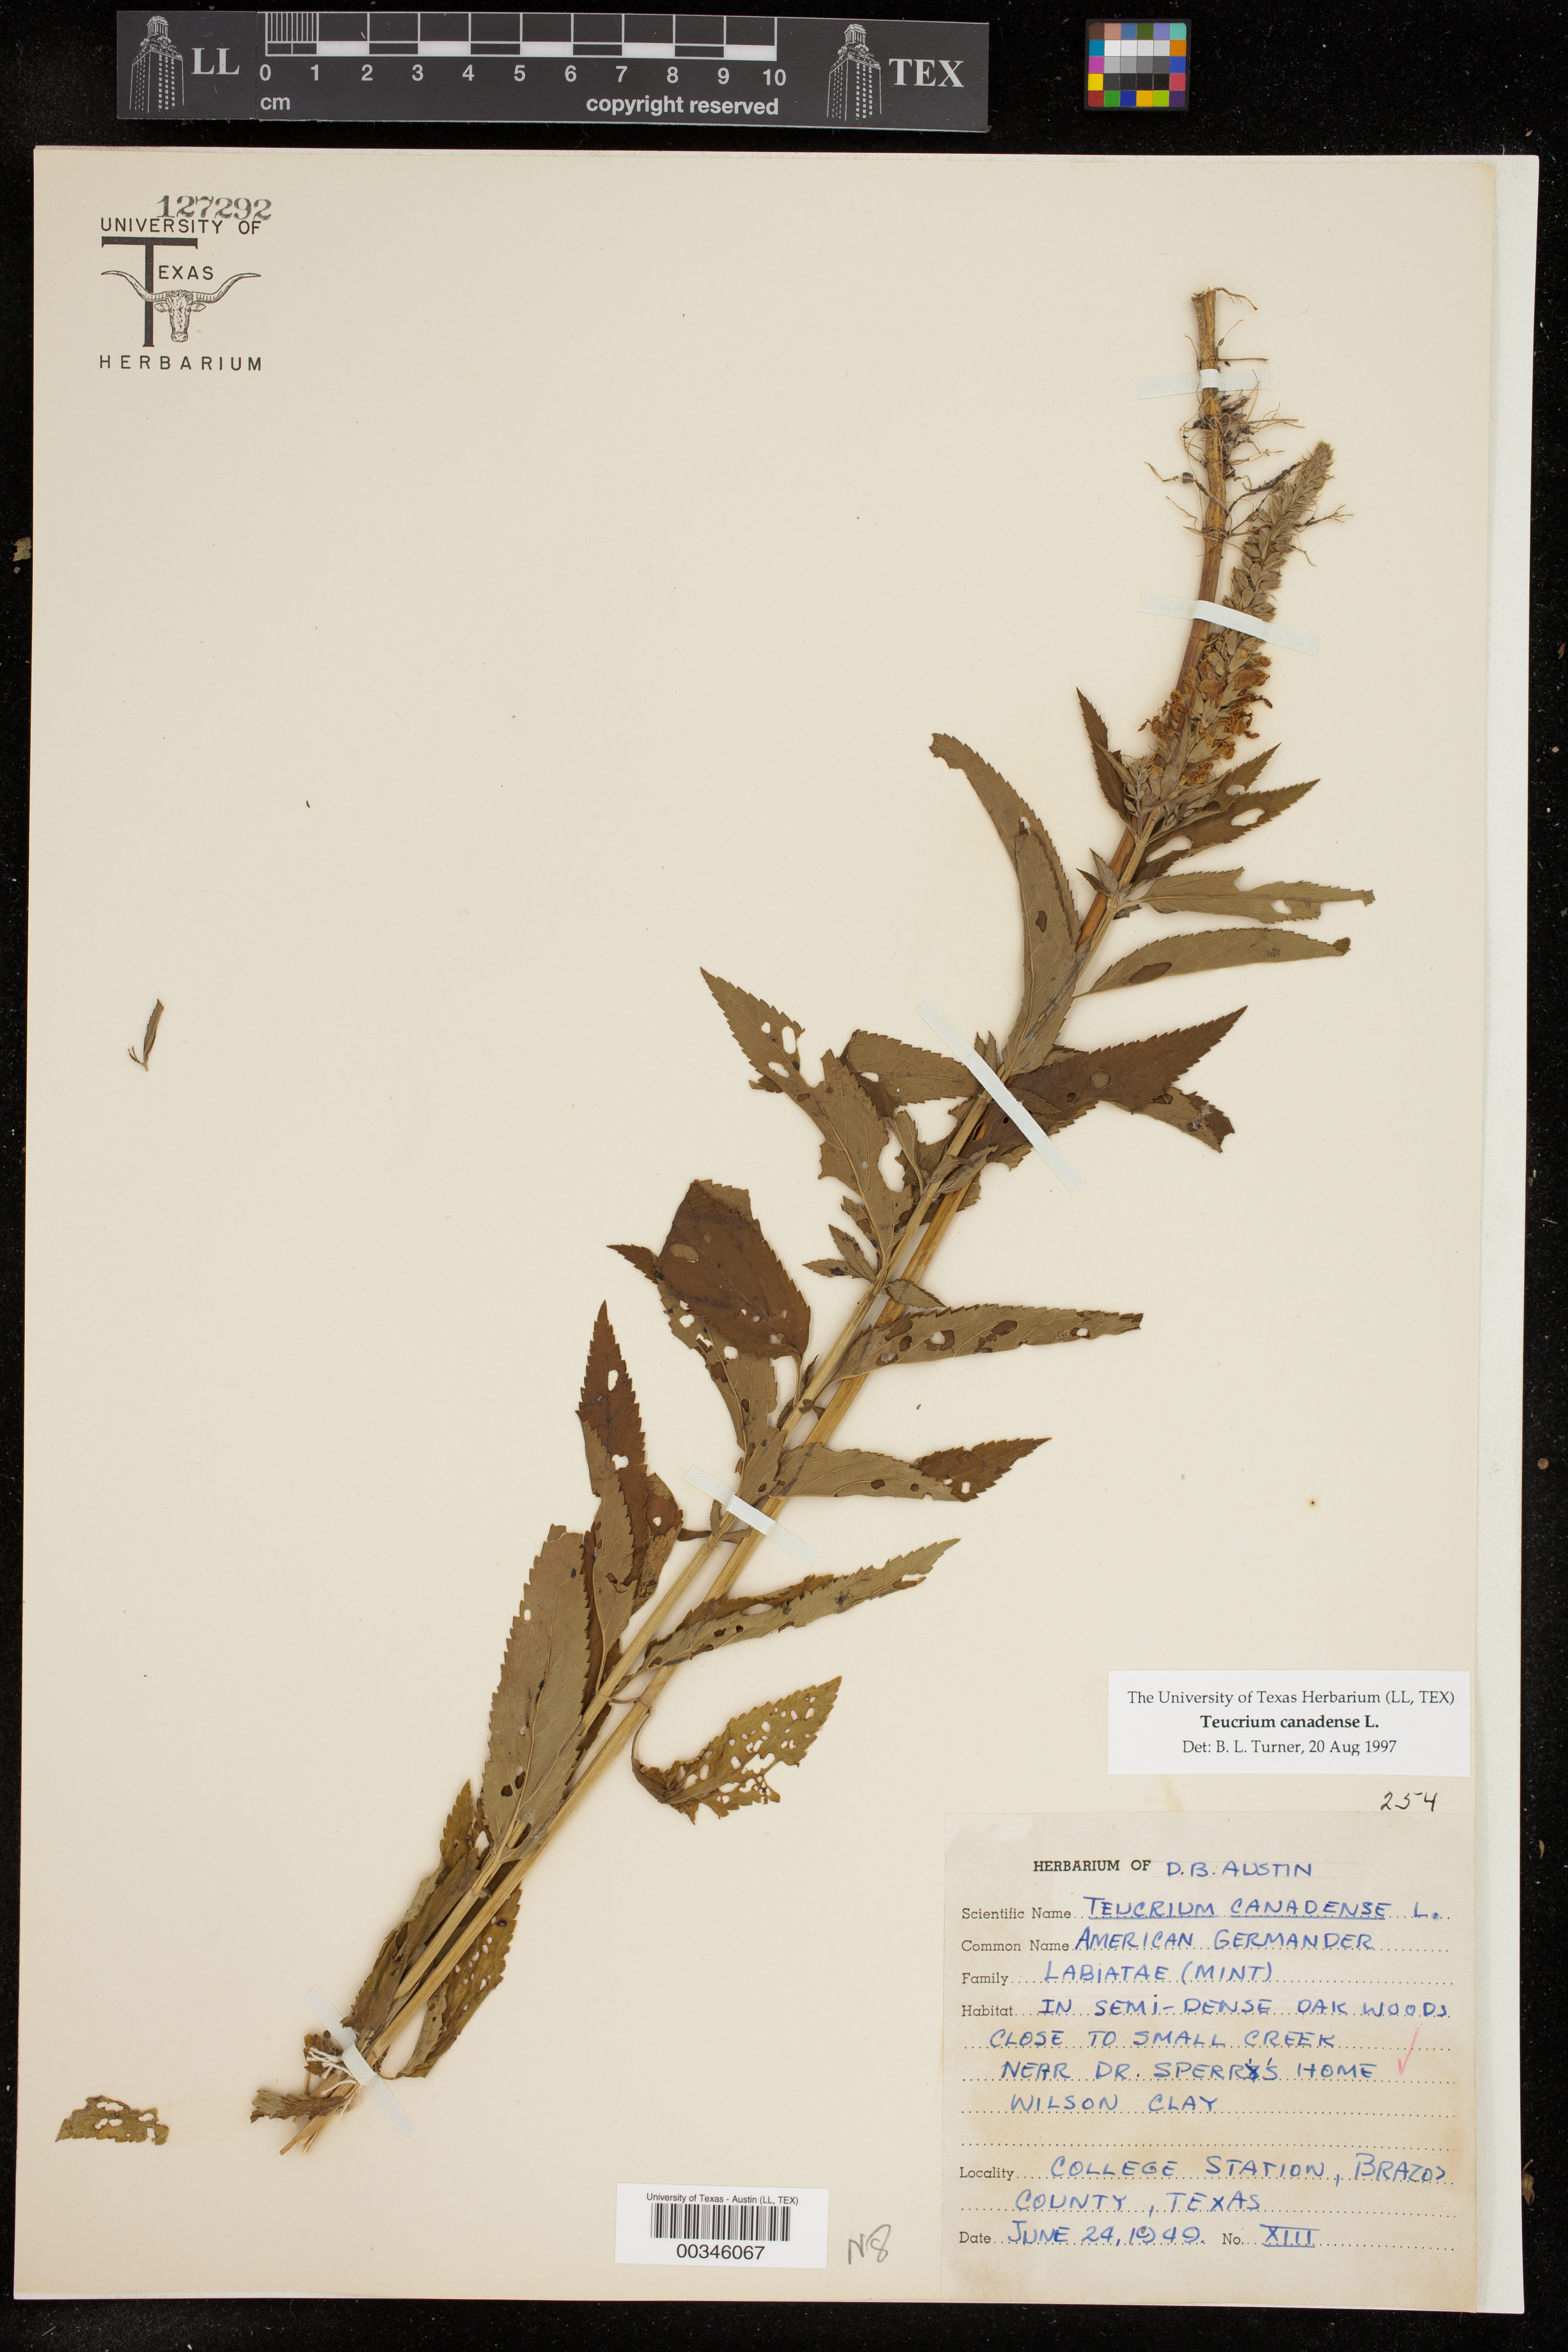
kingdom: Plantae
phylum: Tracheophyta
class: Magnoliopsida
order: Lamiales
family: Lamiaceae
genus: Teucrium
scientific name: Teucrium canadense
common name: American germander
